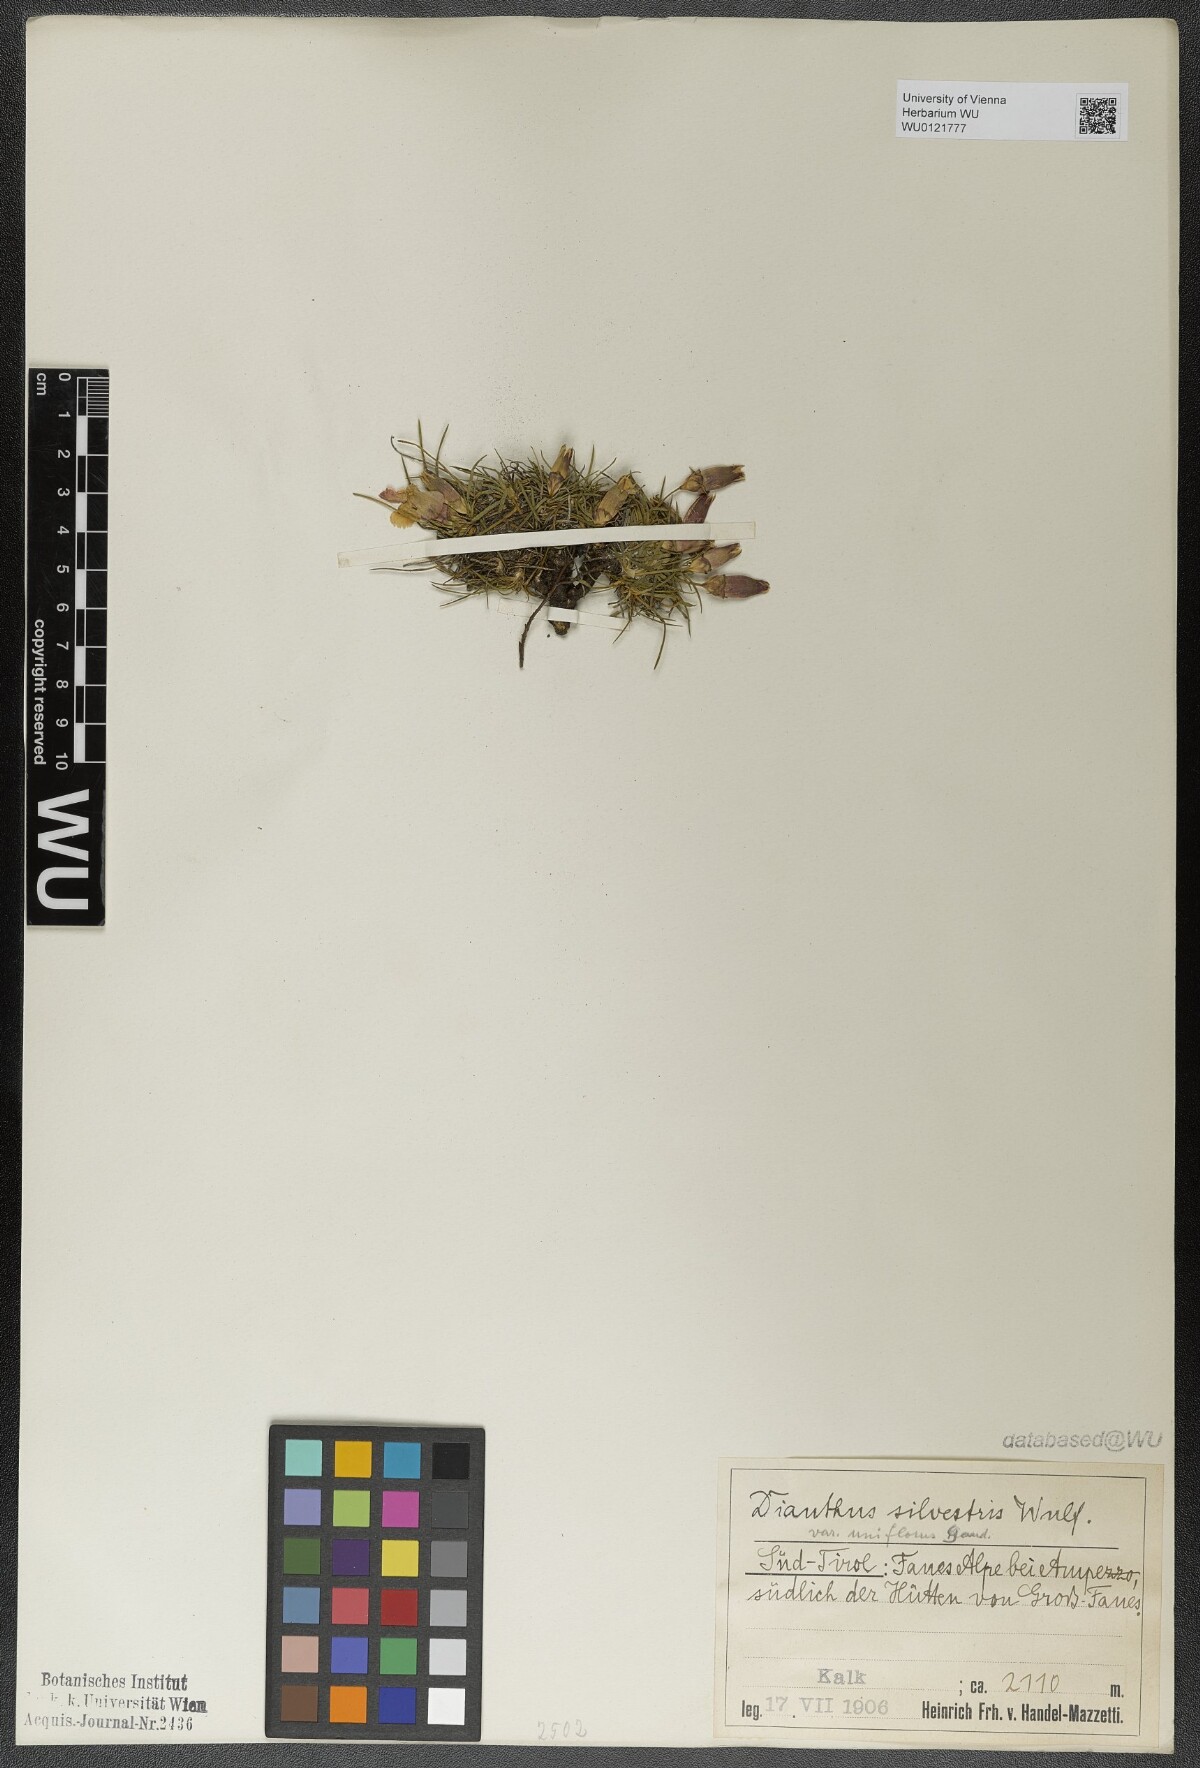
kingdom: Plantae
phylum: Tracheophyta
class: Magnoliopsida
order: Caryophyllales
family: Caryophyllaceae
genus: Dianthus
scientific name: Dianthus sylvestris
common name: Wood pink
